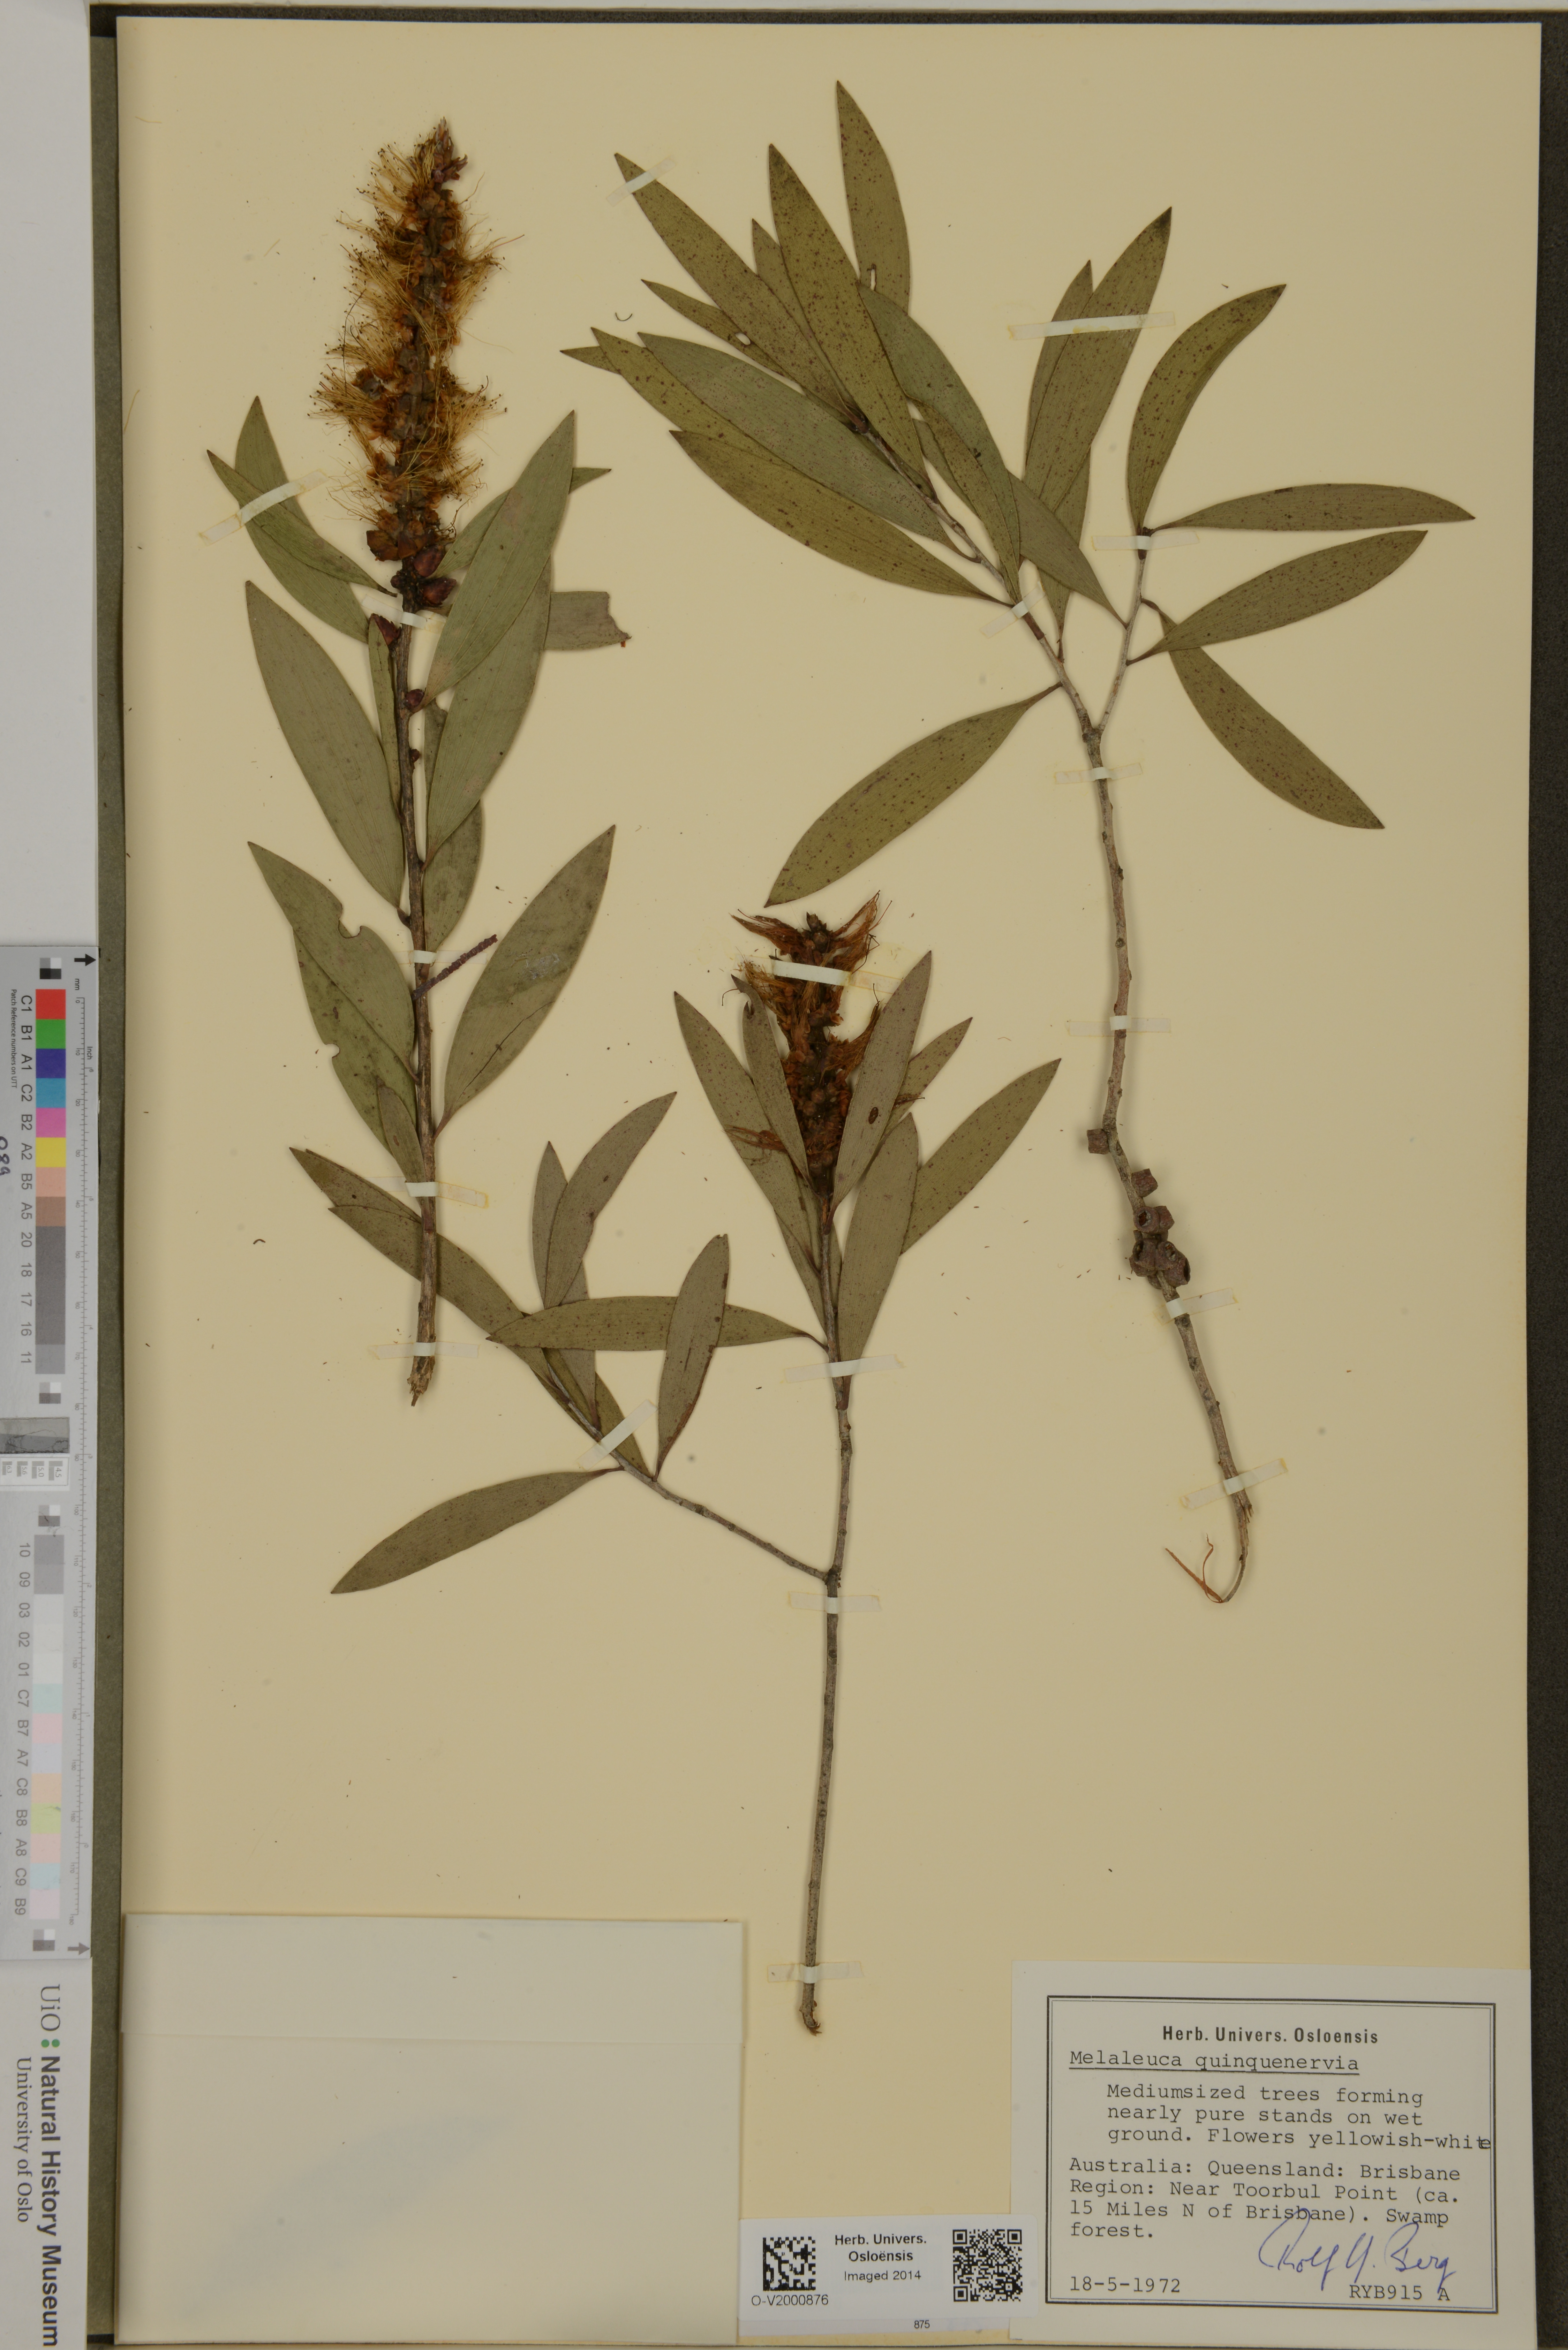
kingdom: Plantae
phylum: Tracheophyta
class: Magnoliopsida
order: Myrtales
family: Myrtaceae
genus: Melaleuca
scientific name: Melaleuca quinquenervia
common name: Punktree
